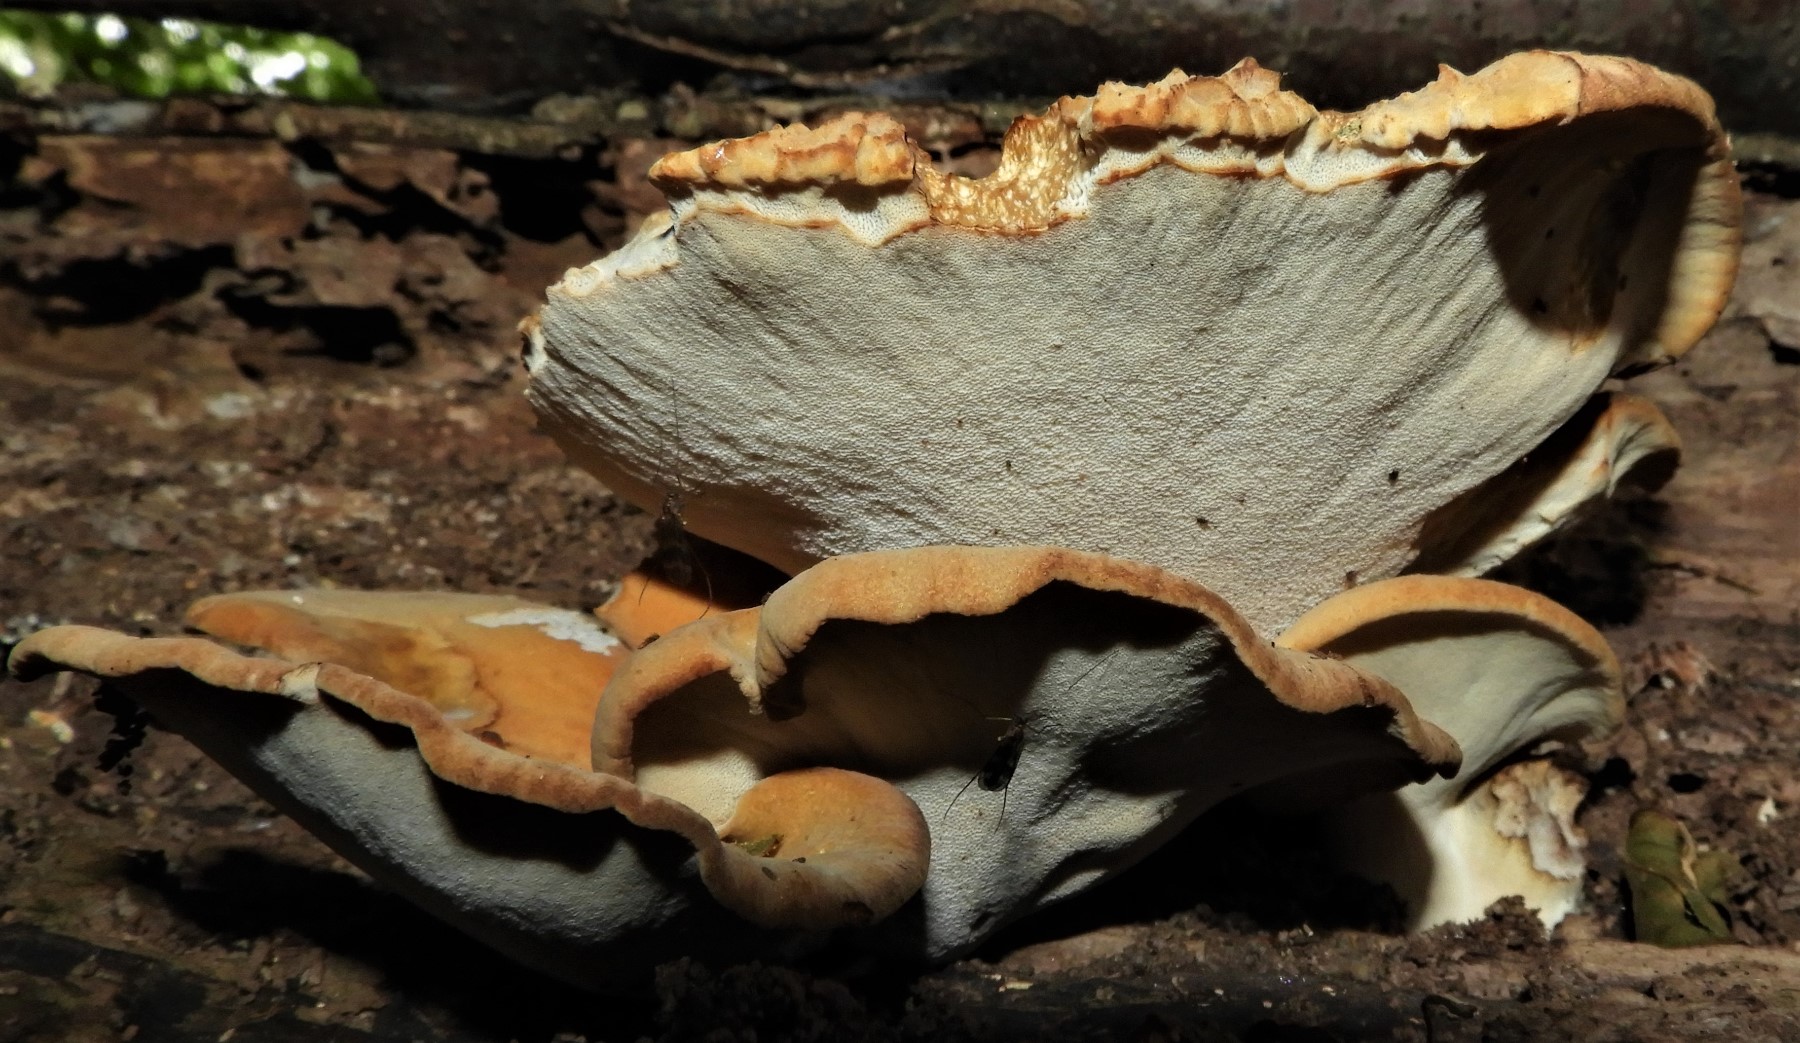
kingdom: Fungi
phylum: Basidiomycota
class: Agaricomycetes
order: Polyporales
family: Polyporaceae
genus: Cerioporus
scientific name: Cerioporus varius
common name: foranderlig stilkporesvamp
